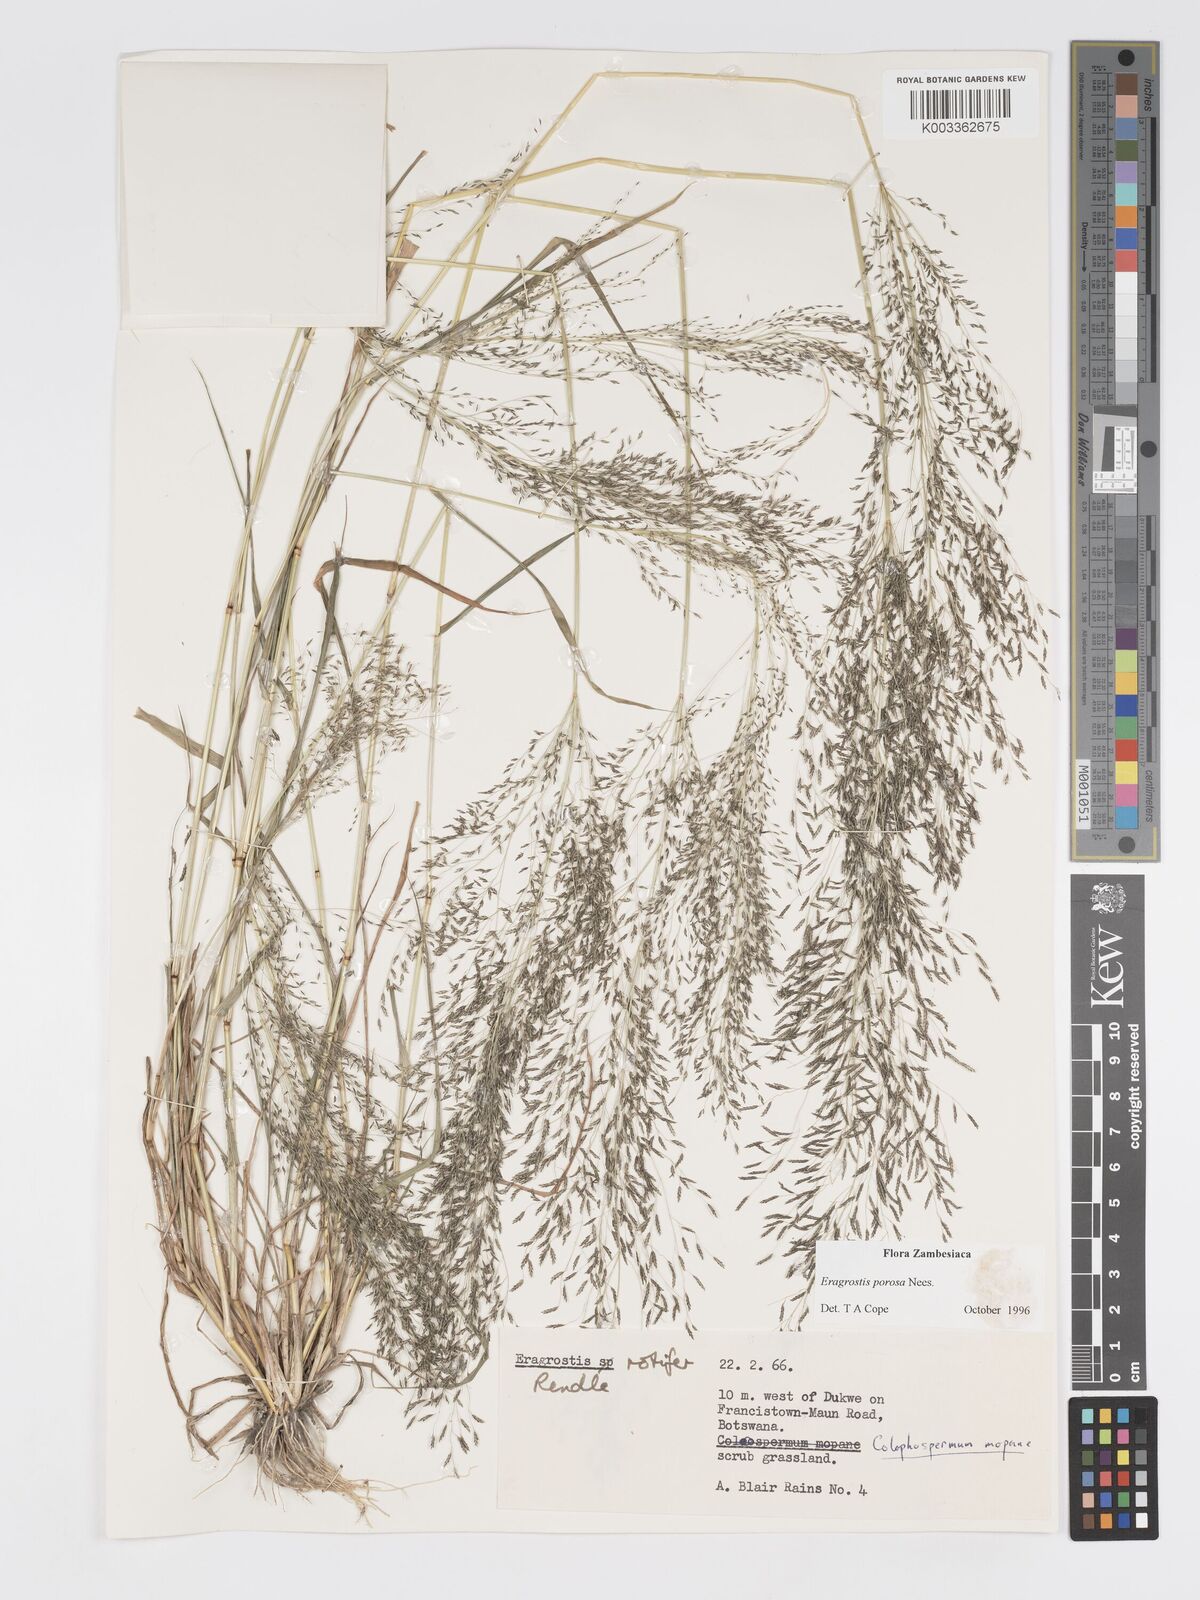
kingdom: Plantae
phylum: Tracheophyta
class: Liliopsida
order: Poales
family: Poaceae
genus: Eragrostis
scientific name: Eragrostis porosa
